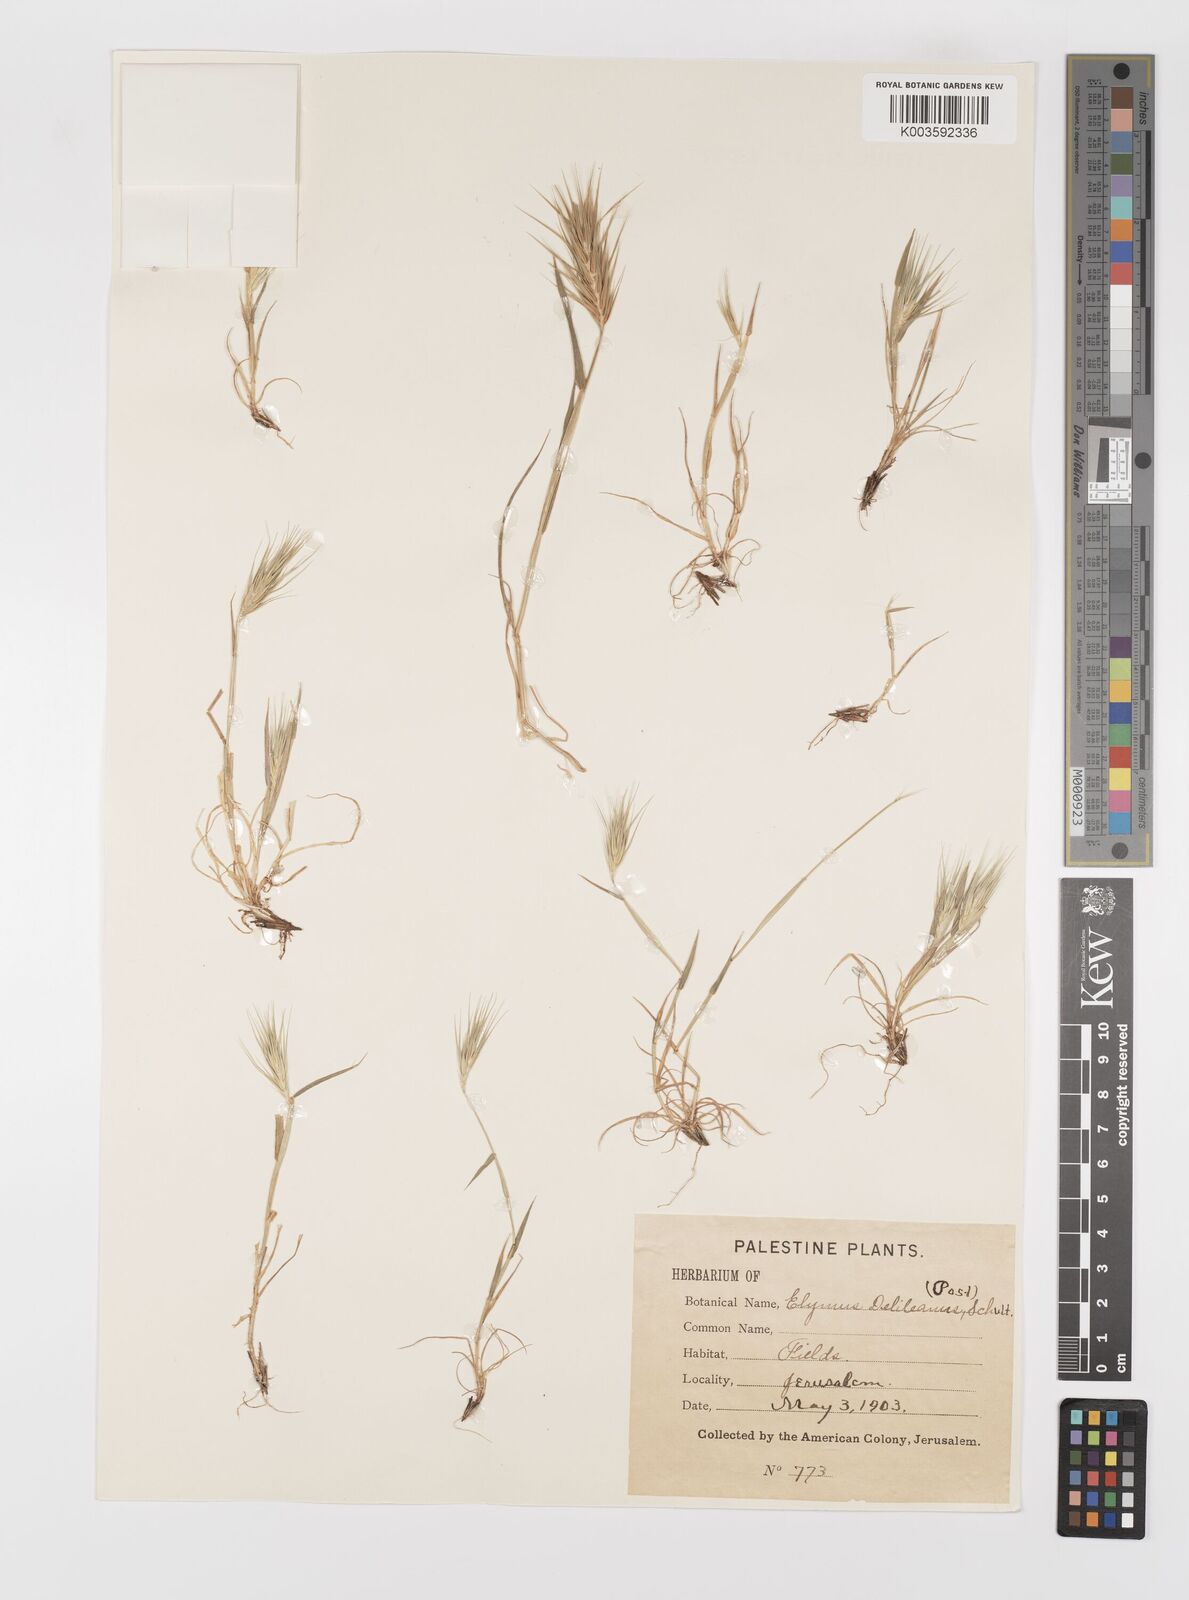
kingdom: Plantae
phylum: Tracheophyta
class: Liliopsida
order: Poales
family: Poaceae
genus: Crithopsis
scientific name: Crithopsis delileana
